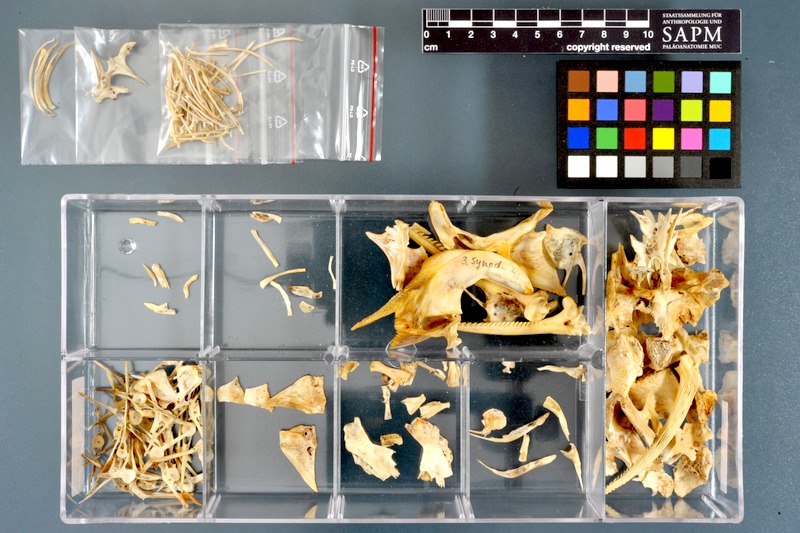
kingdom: Animalia
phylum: Chordata
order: Siluriformes
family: Mochokidae
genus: Synodontis
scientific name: Synodontis frontosus
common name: Sudan squeaker
